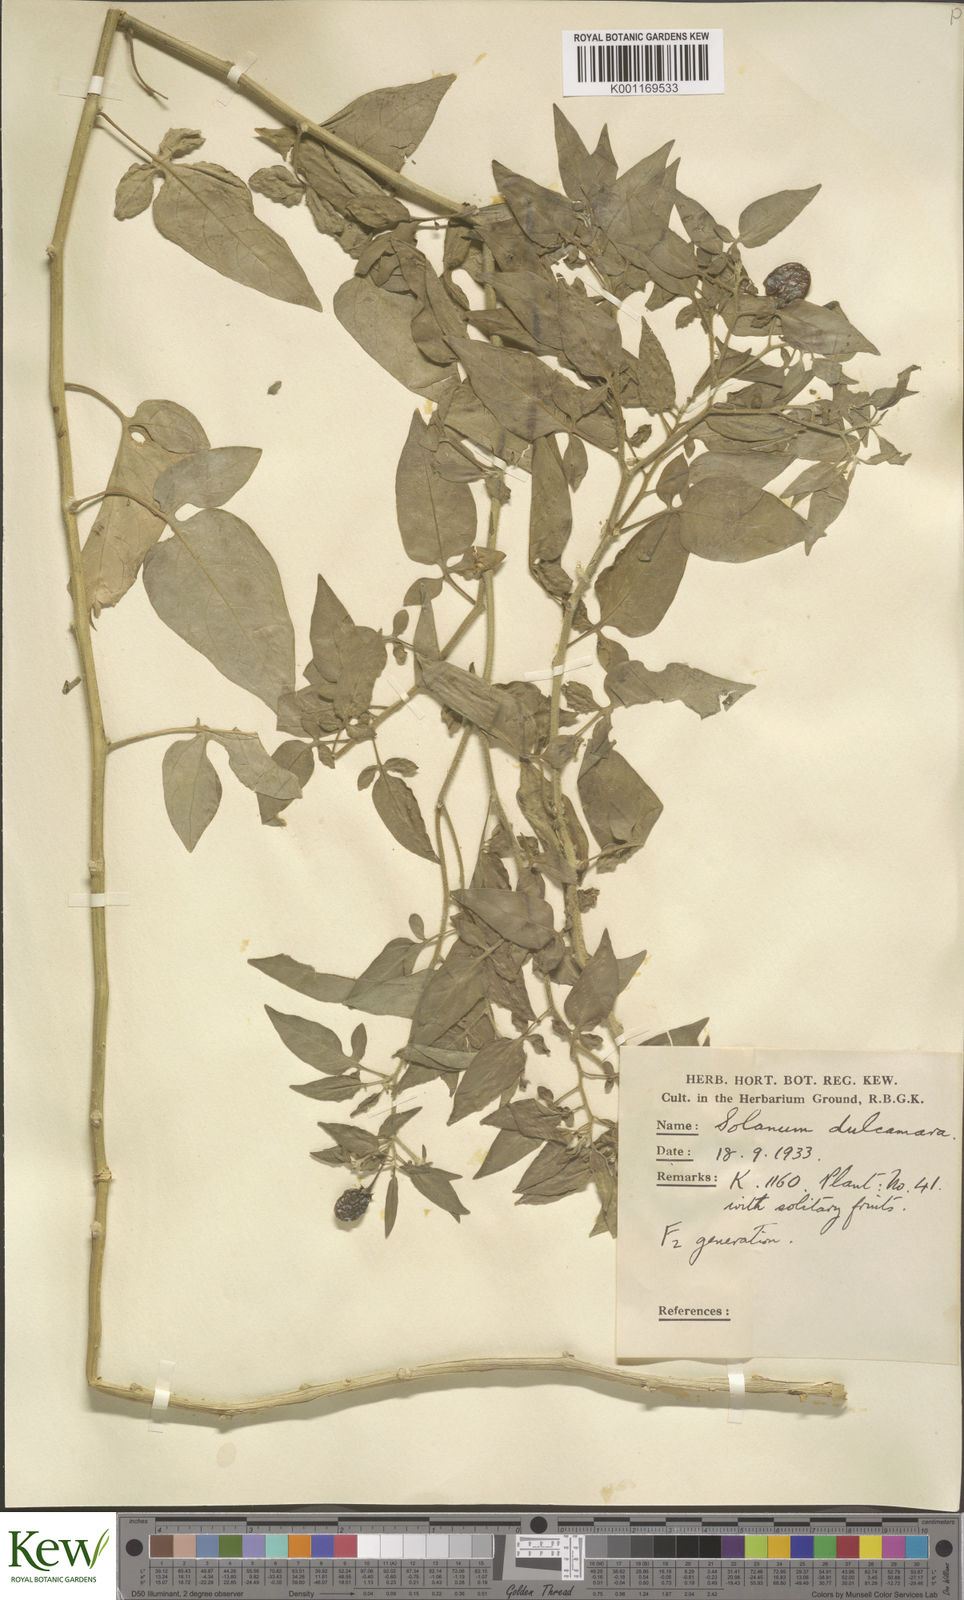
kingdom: Plantae
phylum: Tracheophyta
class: Magnoliopsida
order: Solanales
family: Solanaceae
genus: Solanum
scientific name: Solanum dulcamara
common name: Climbing nightshade
